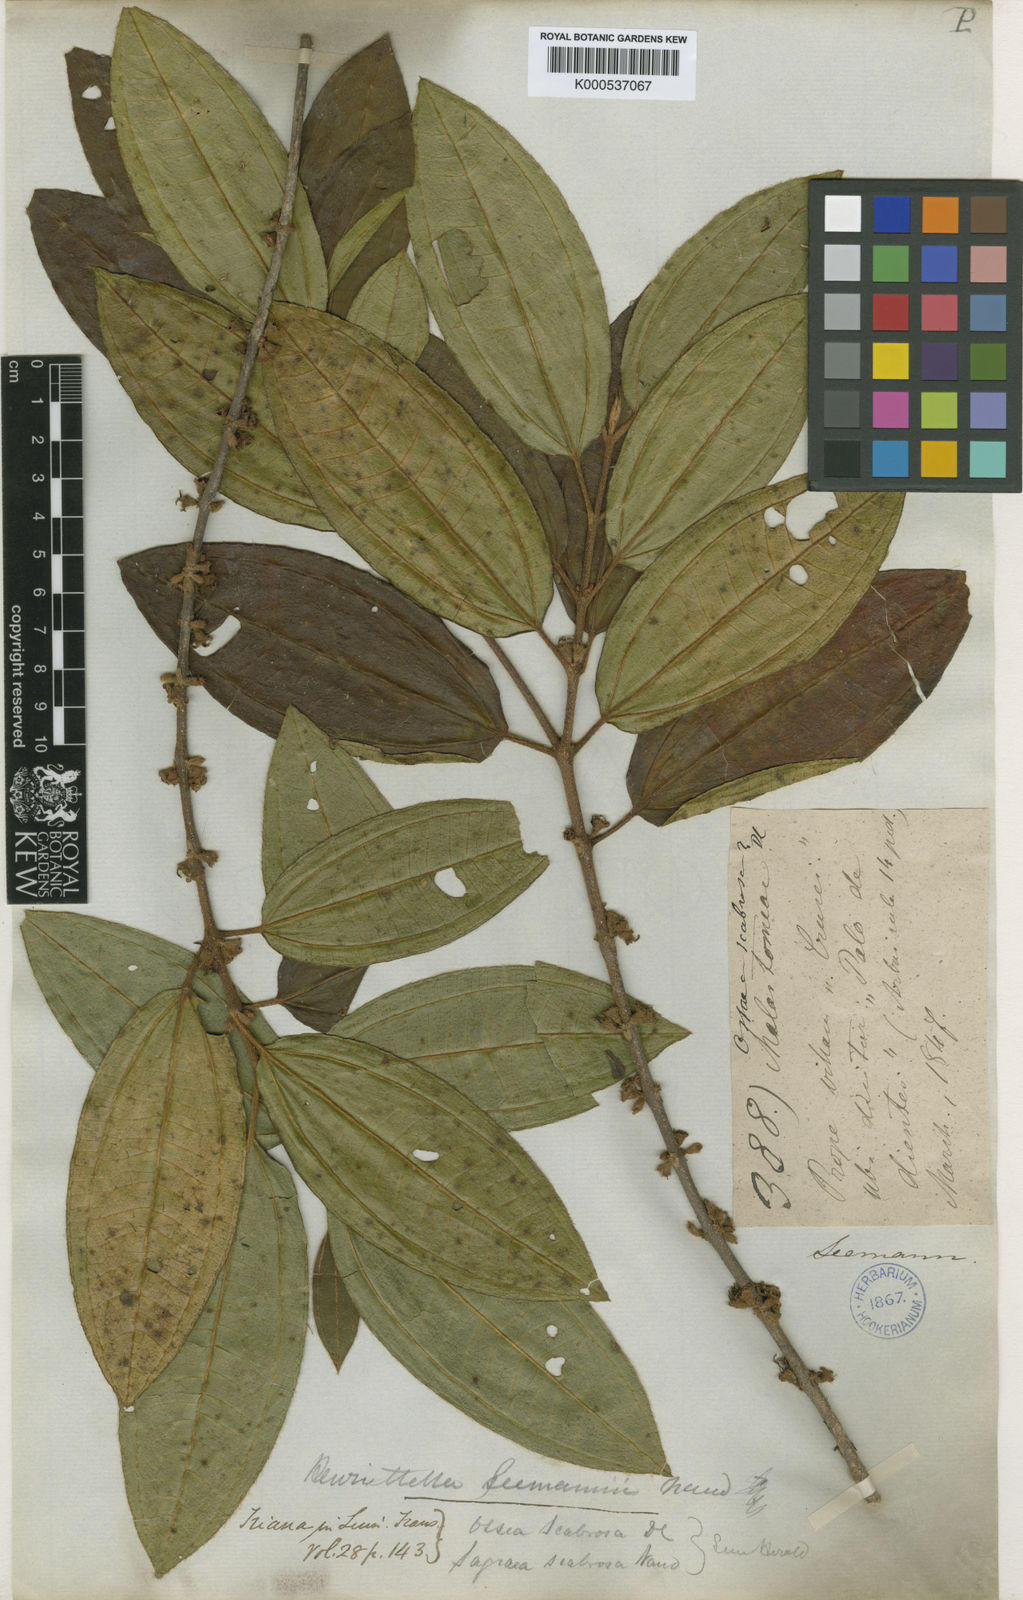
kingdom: Plantae
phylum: Tracheophyta
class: Magnoliopsida
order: Myrtales
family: Melastomataceae
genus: Henriettea
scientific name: Henriettea seemannii
